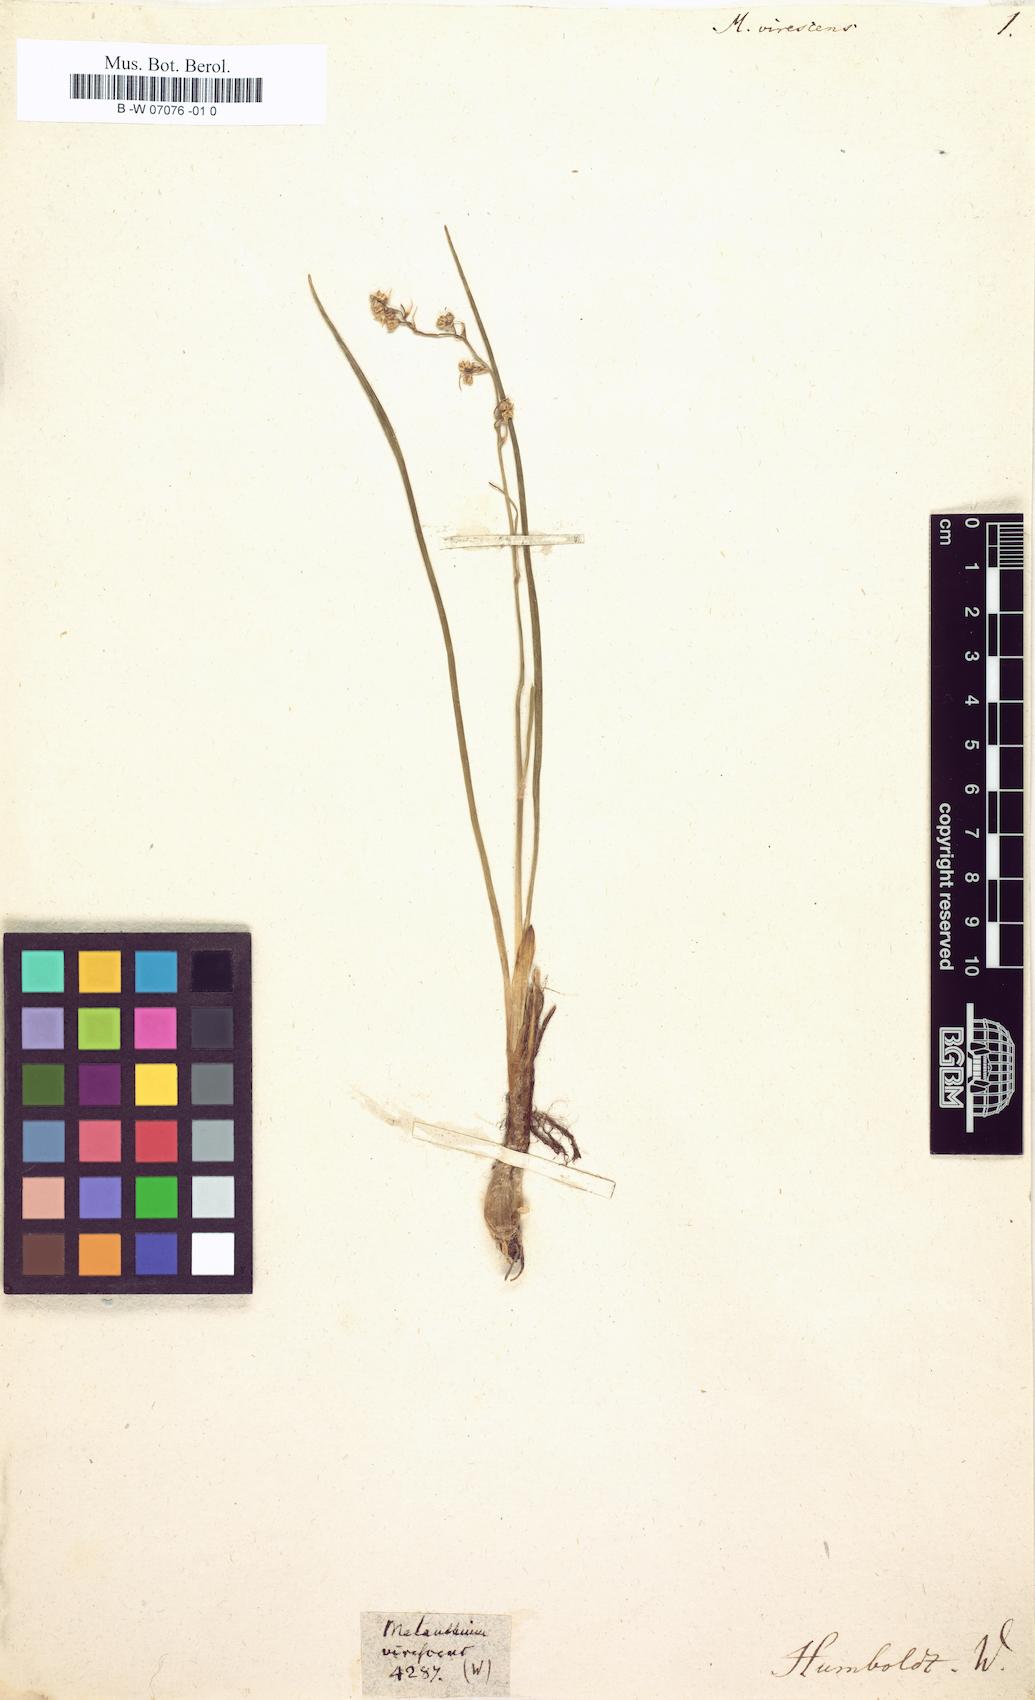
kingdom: Plantae
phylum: Tracheophyta
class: Liliopsida
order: Liliales
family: Melanthiaceae
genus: Anticlea
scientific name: Anticlea virescens
